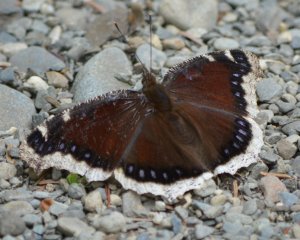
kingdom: Animalia
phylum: Arthropoda
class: Insecta
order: Lepidoptera
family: Nymphalidae
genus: Nymphalis
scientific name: Nymphalis antiopa
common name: Mourning Cloak
